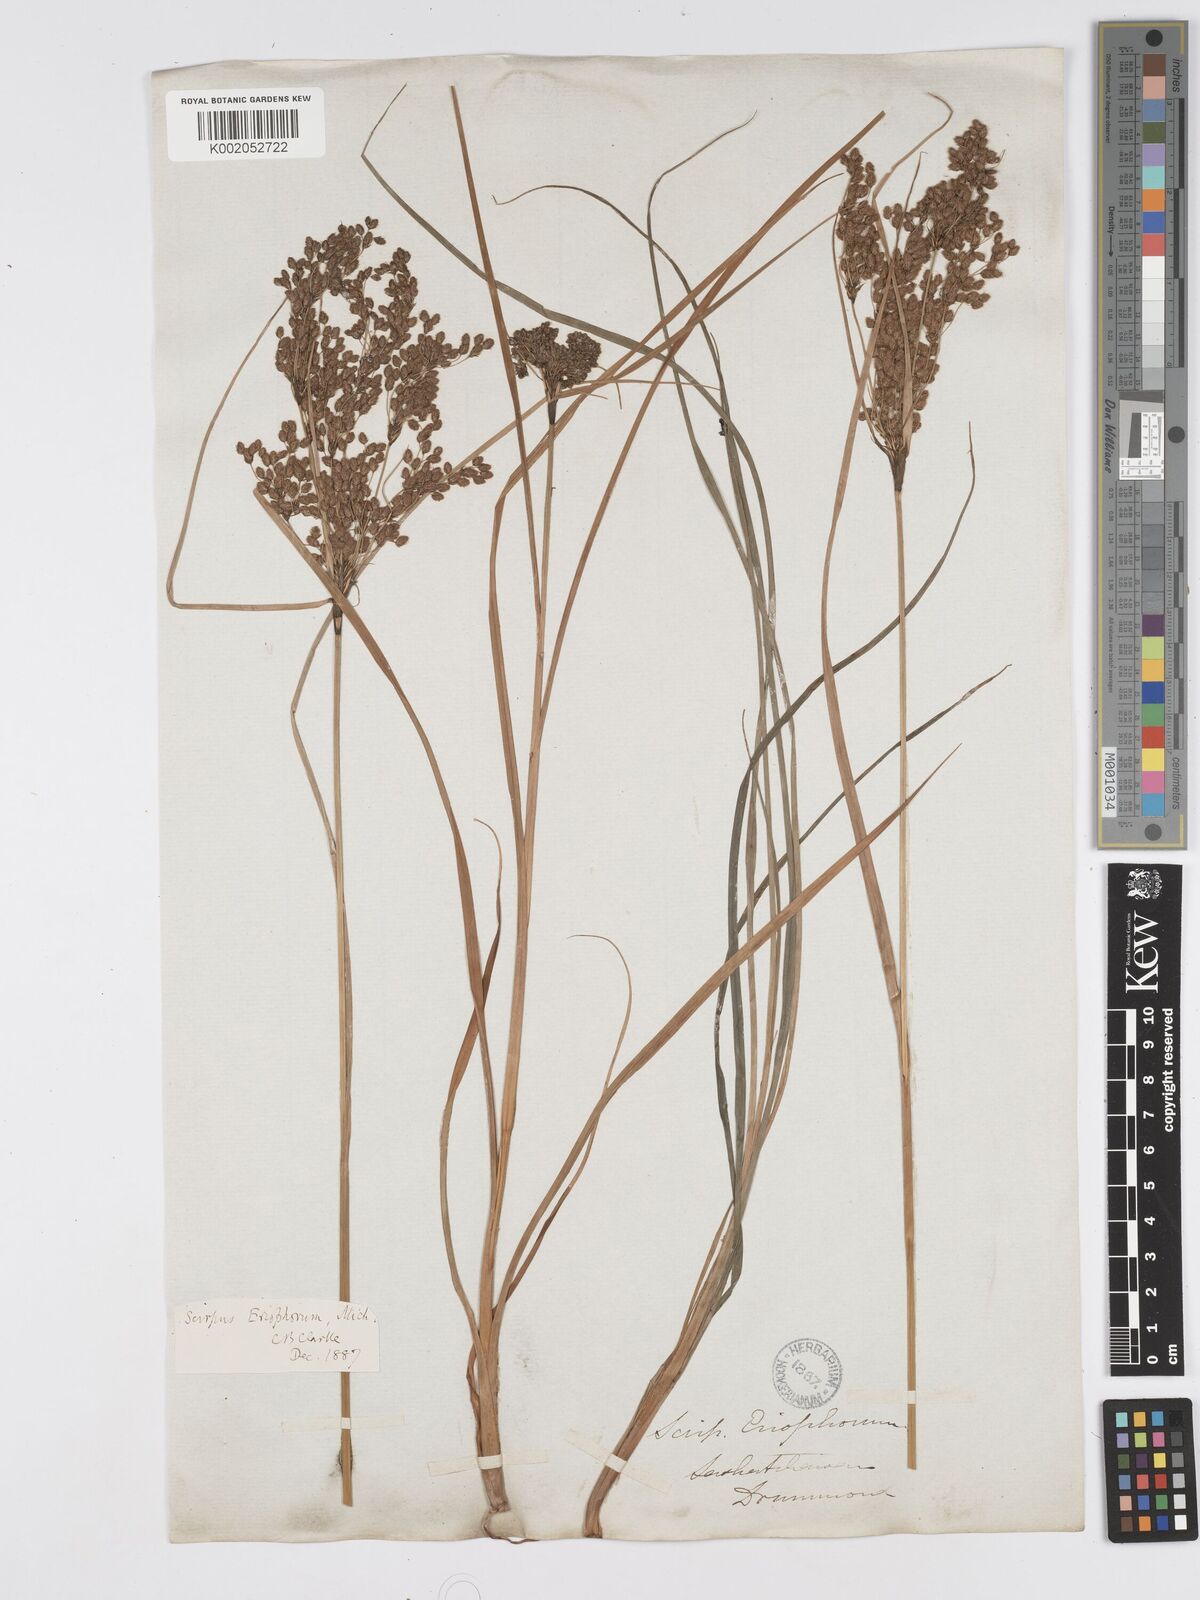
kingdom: Plantae
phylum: Tracheophyta
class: Liliopsida
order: Poales
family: Cyperaceae
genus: Scirpus
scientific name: Scirpus cyperinus
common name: Black-sheathed bulrush
